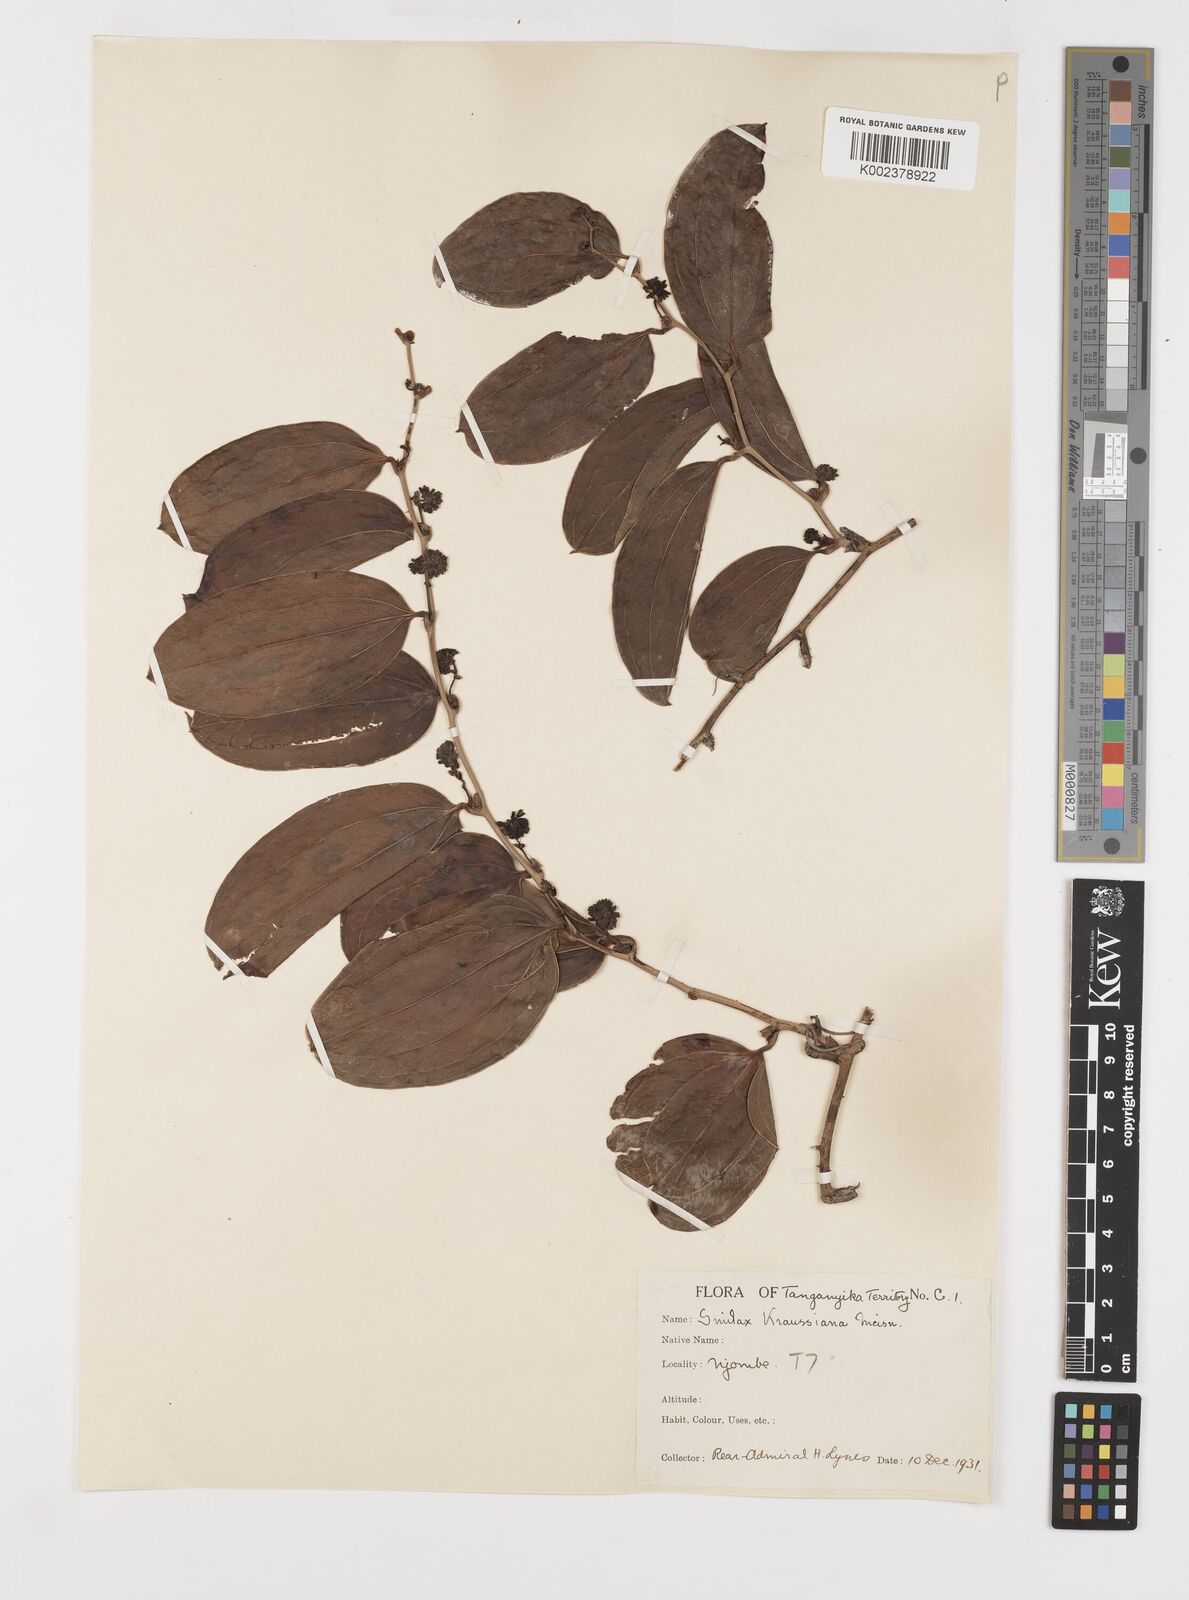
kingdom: Plantae
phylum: Tracheophyta
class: Liliopsida
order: Liliales
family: Smilacaceae
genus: Smilax
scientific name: Smilax anceps
